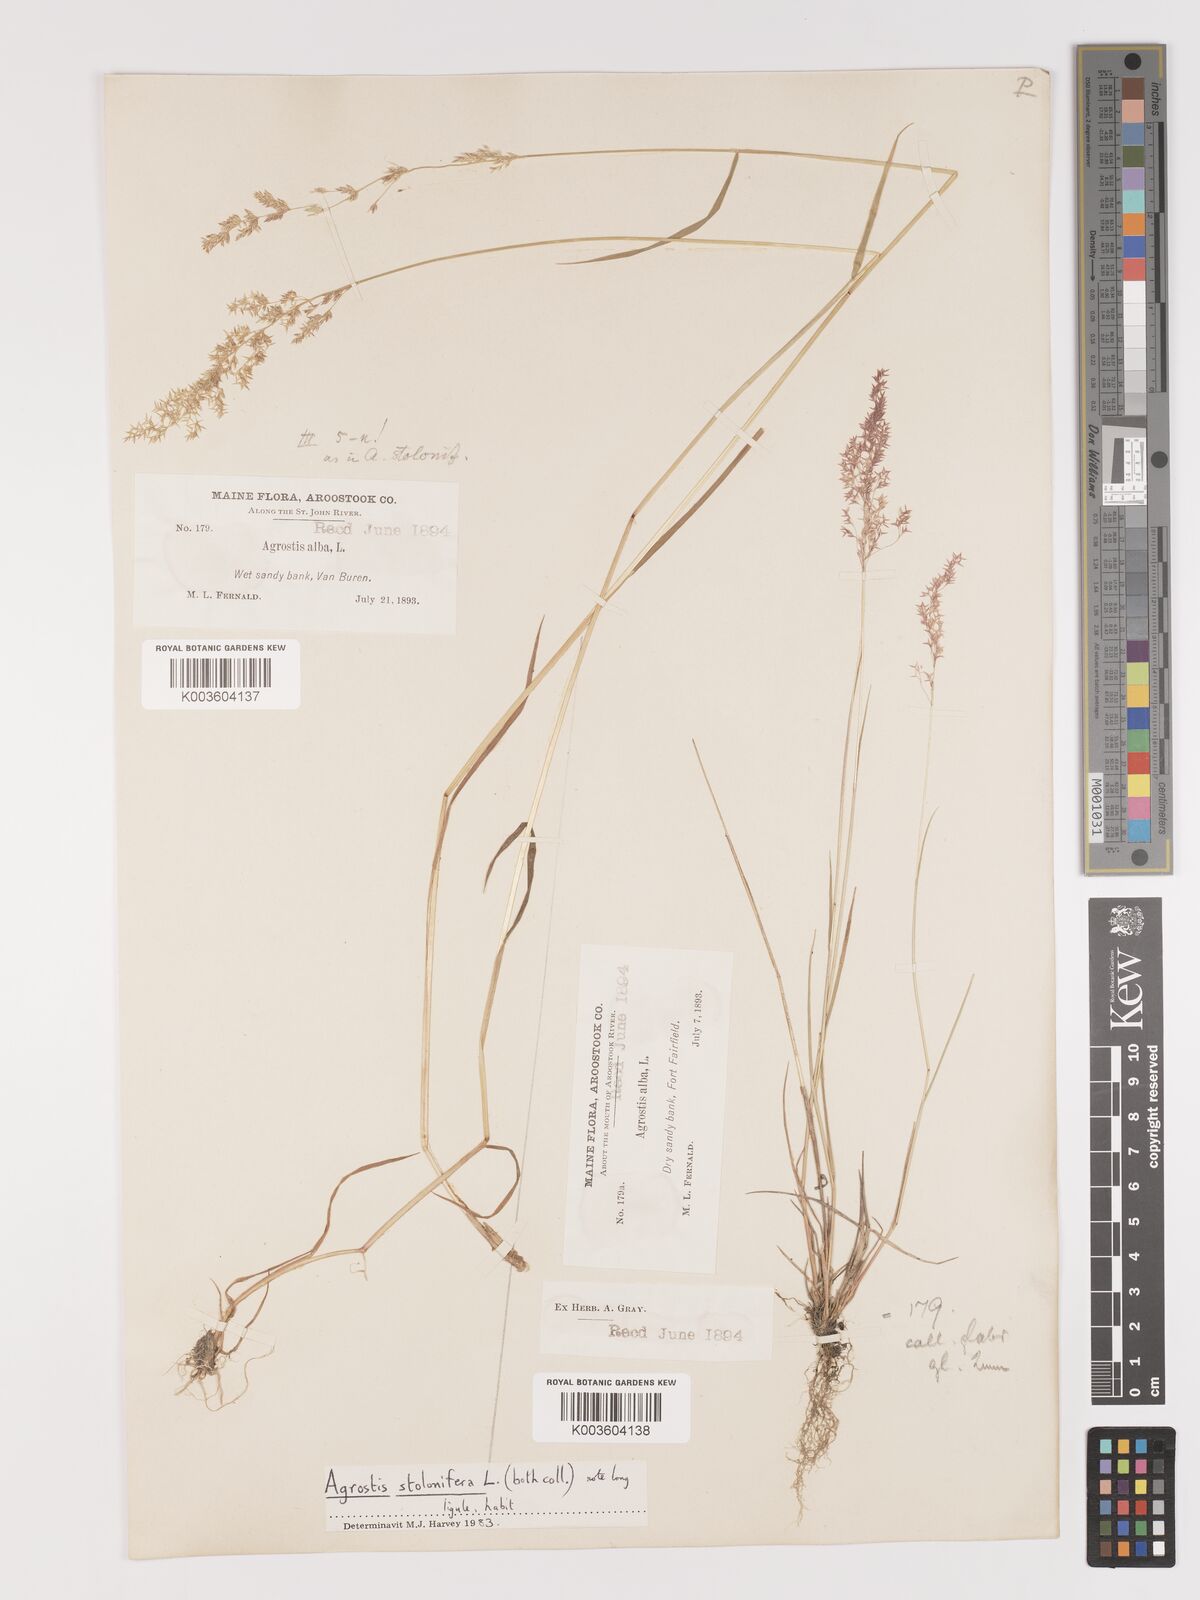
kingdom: Plantae
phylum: Tracheophyta
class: Liliopsida
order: Poales
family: Poaceae
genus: Agrostis
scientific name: Agrostis capillaris
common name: Colonial bentgrass
